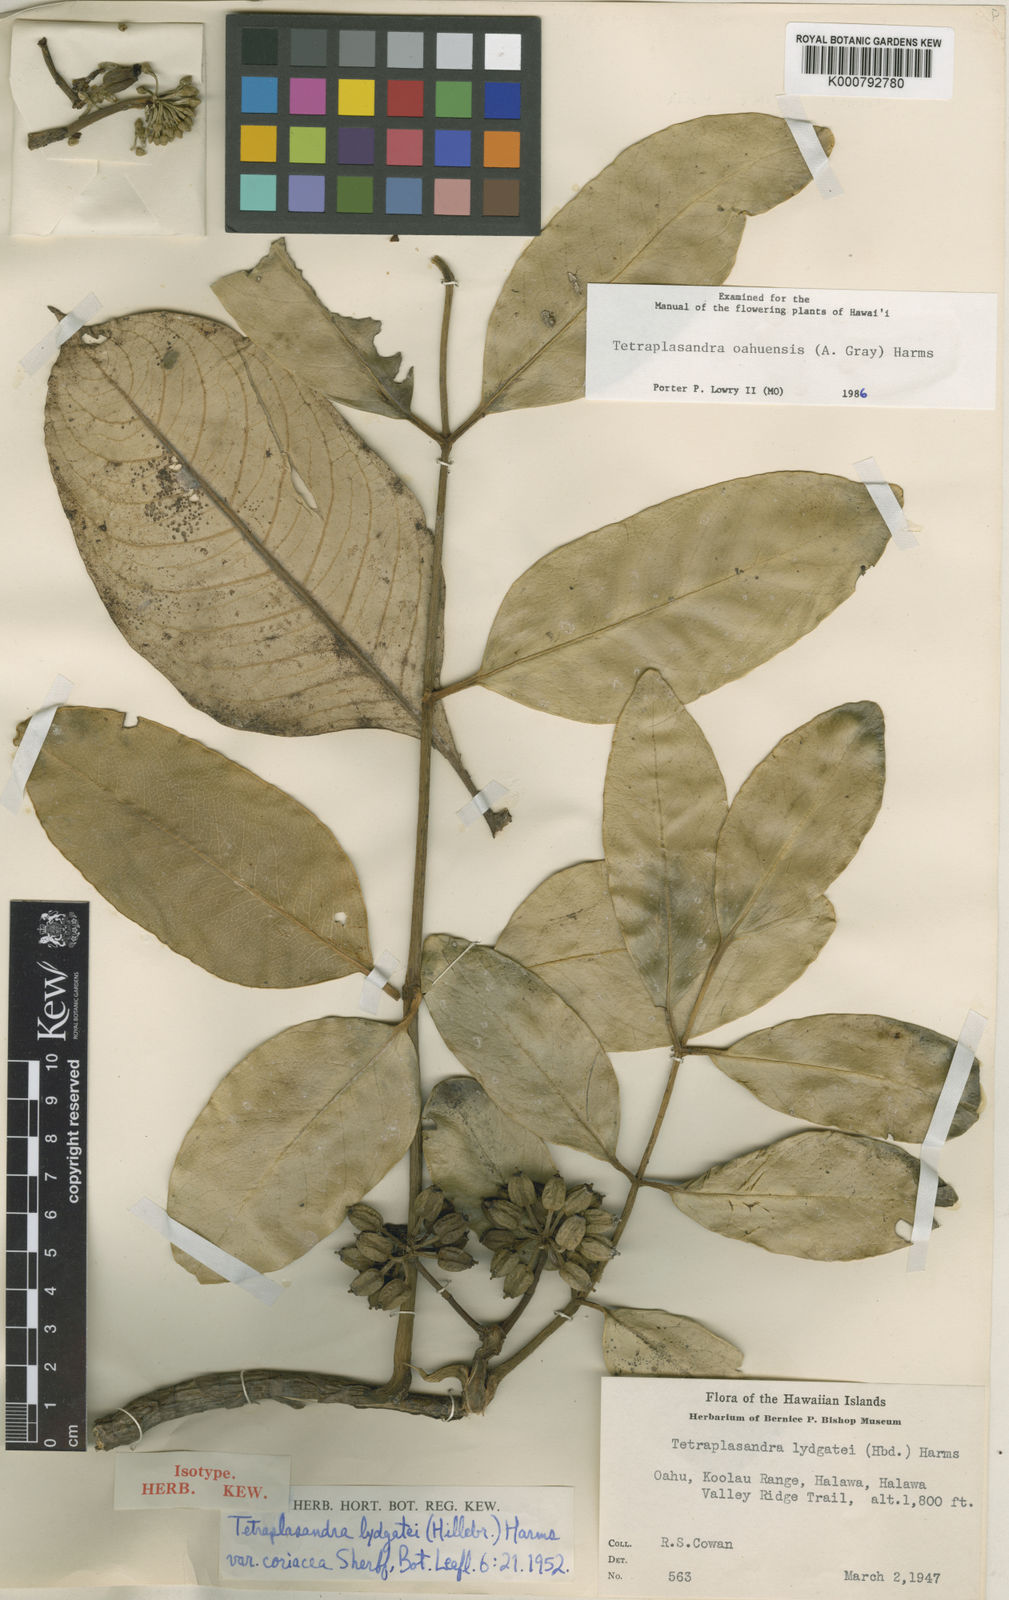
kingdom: Plantae
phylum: Tracheophyta
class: Magnoliopsida
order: Apiales
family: Araliaceae
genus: Polyscias
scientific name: Polyscias oahuensis
